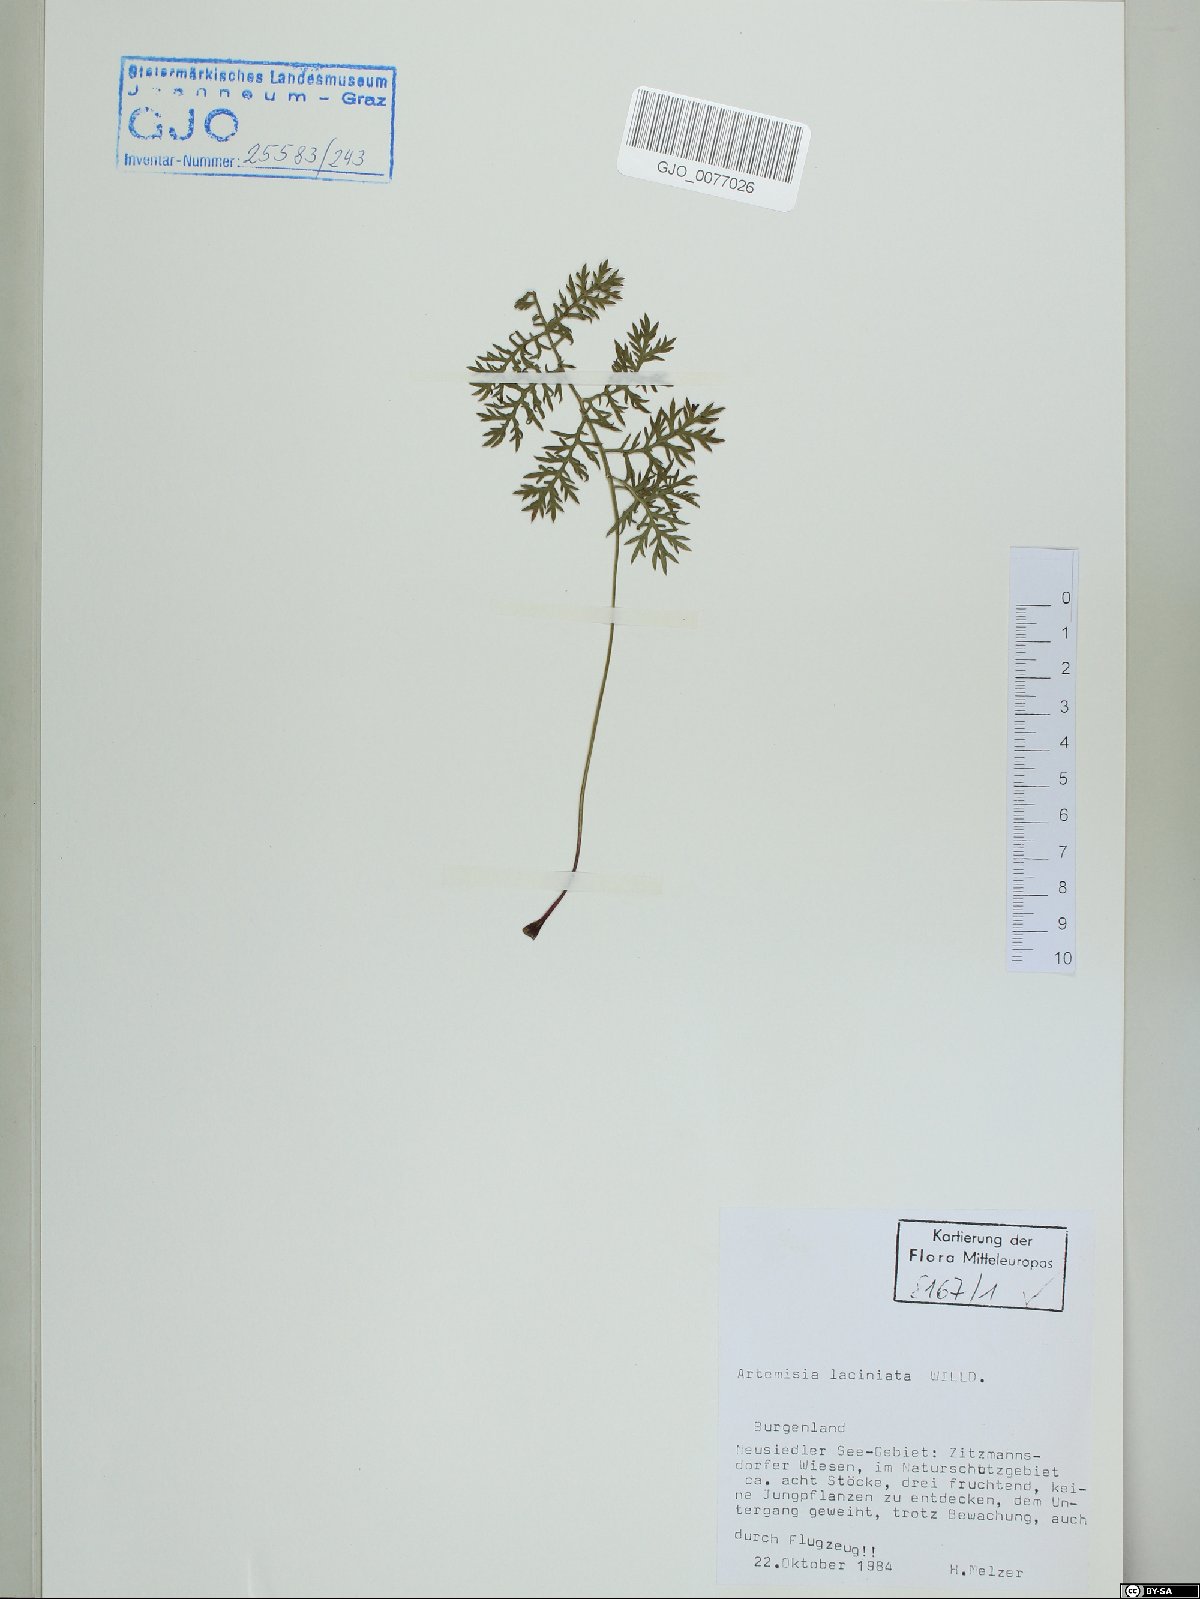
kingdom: Plantae
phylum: Tracheophyta
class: Magnoliopsida
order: Asterales
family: Asteraceae
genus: Artemisia
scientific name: Artemisia laciniata
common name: Siberian wormwood
